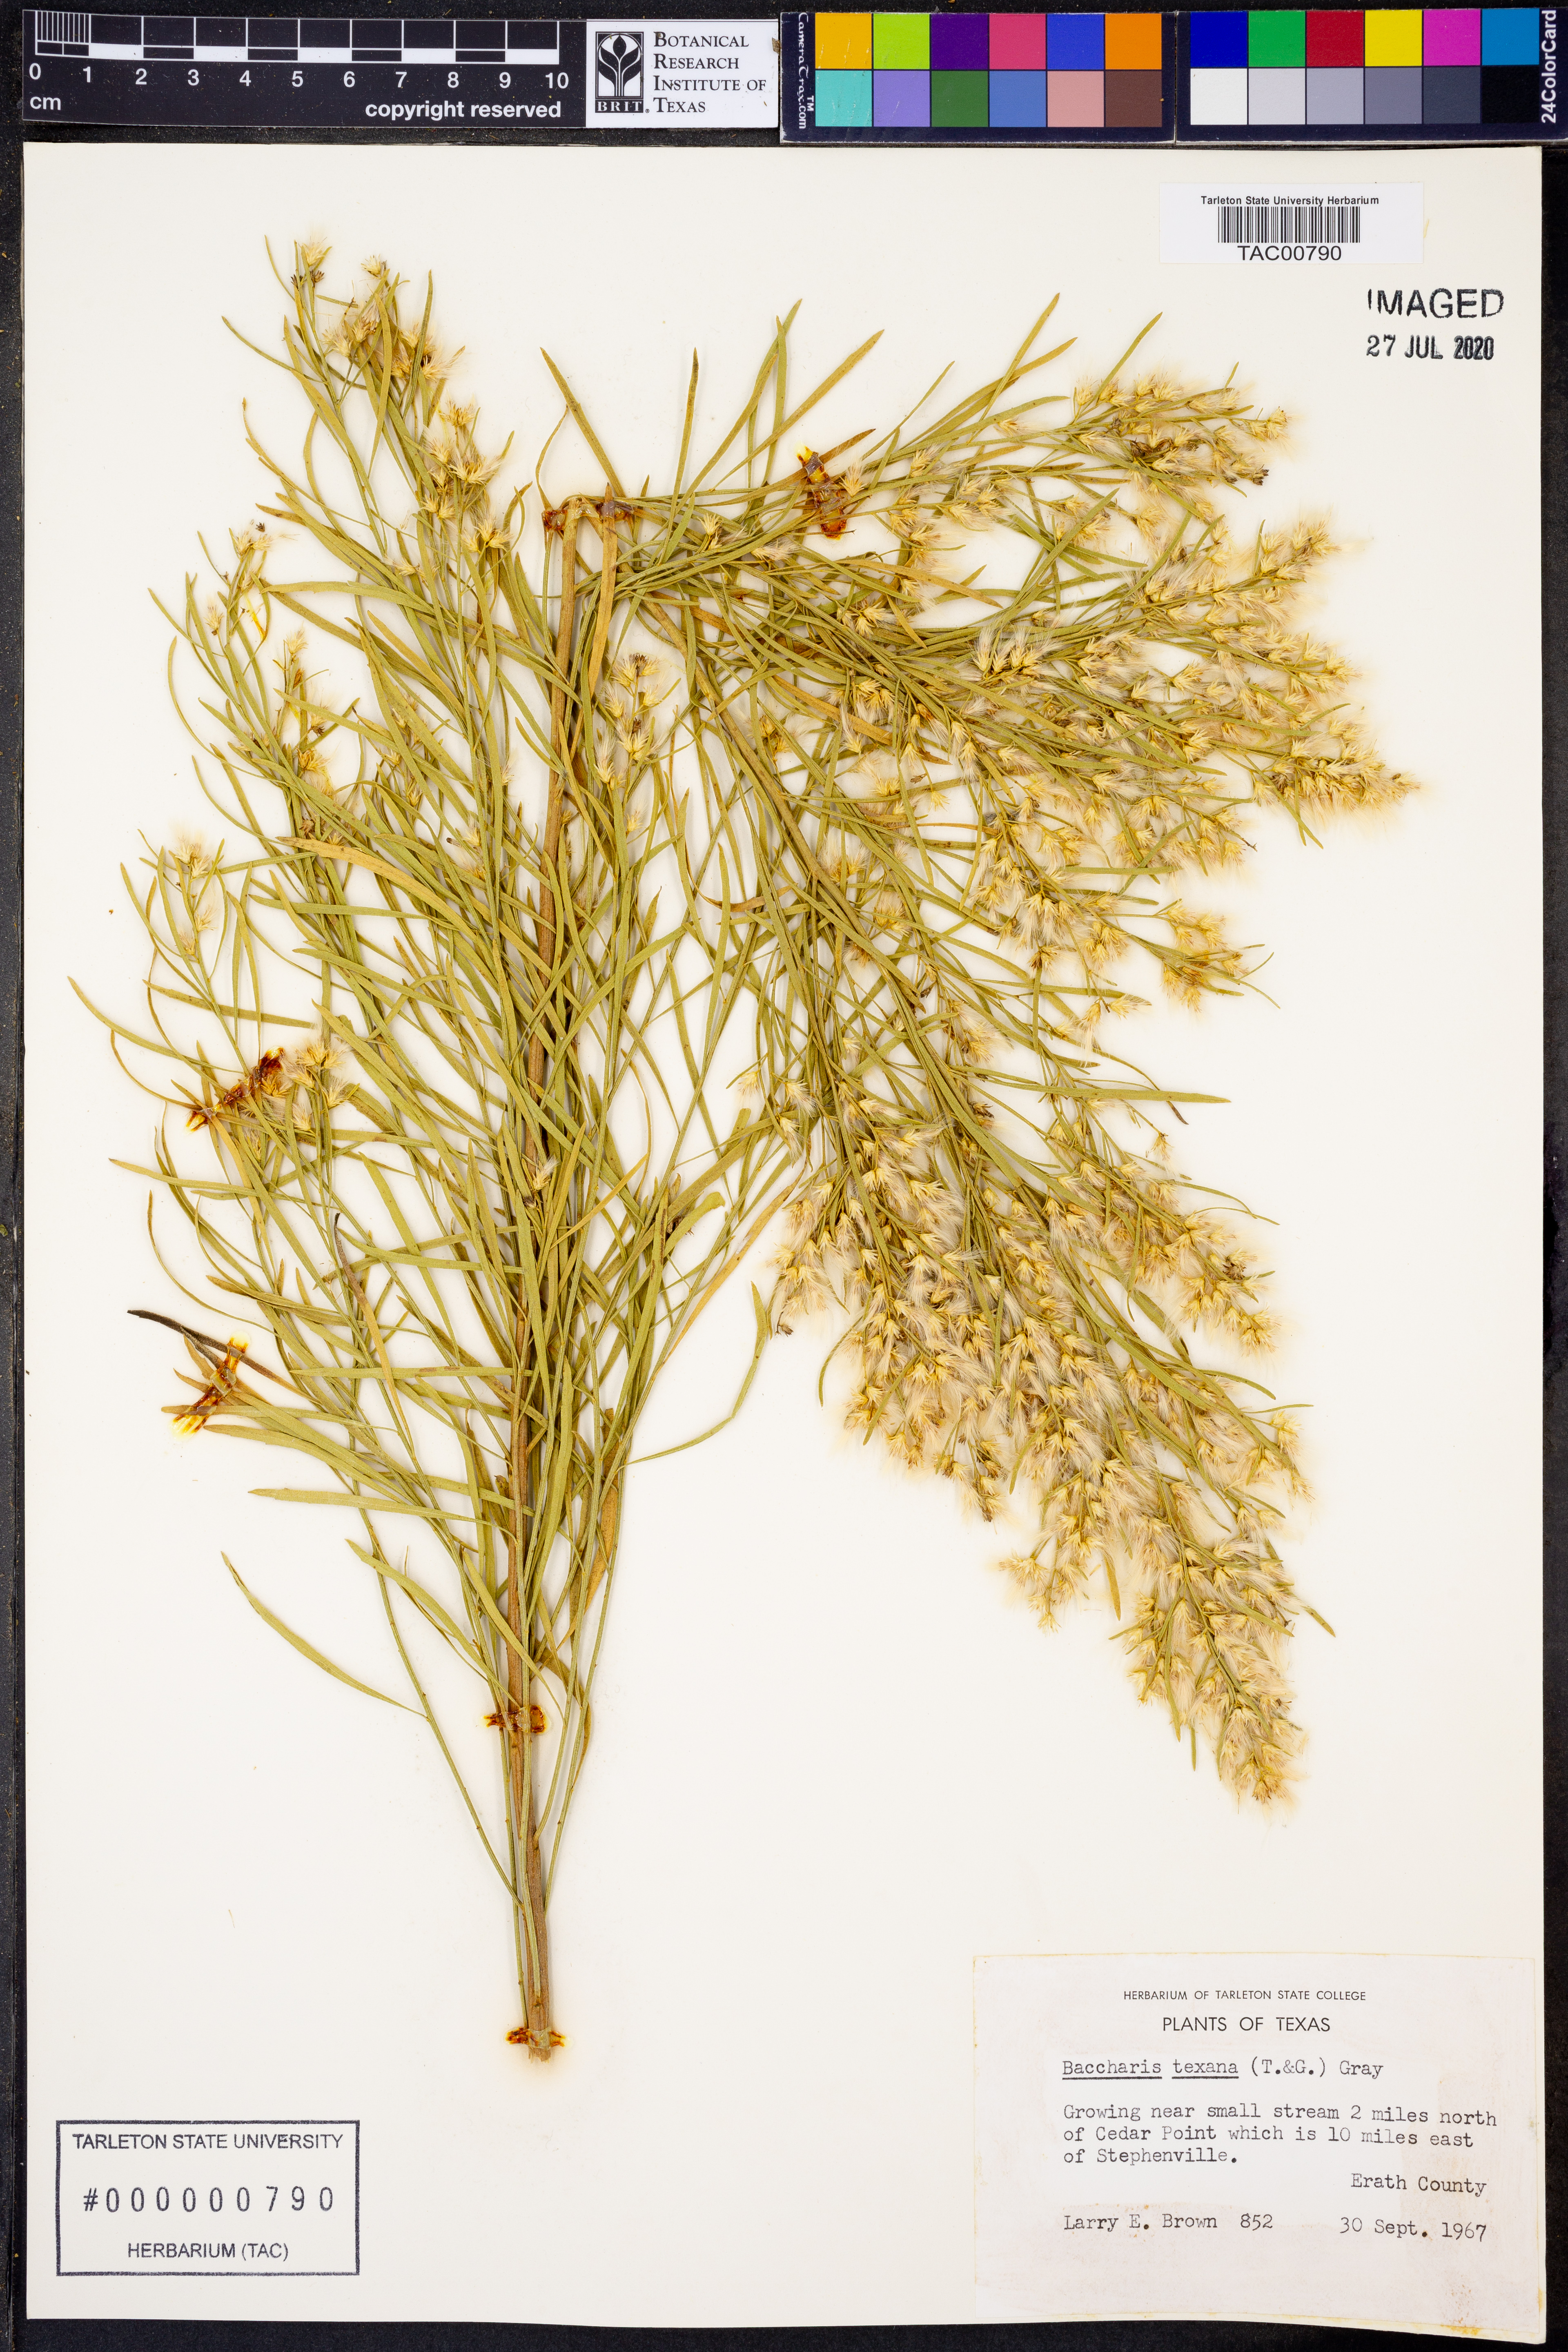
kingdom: Plantae
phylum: Tracheophyta
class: Magnoliopsida
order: Asterales
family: Asteraceae
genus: Baccharis
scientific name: Baccharis texana
